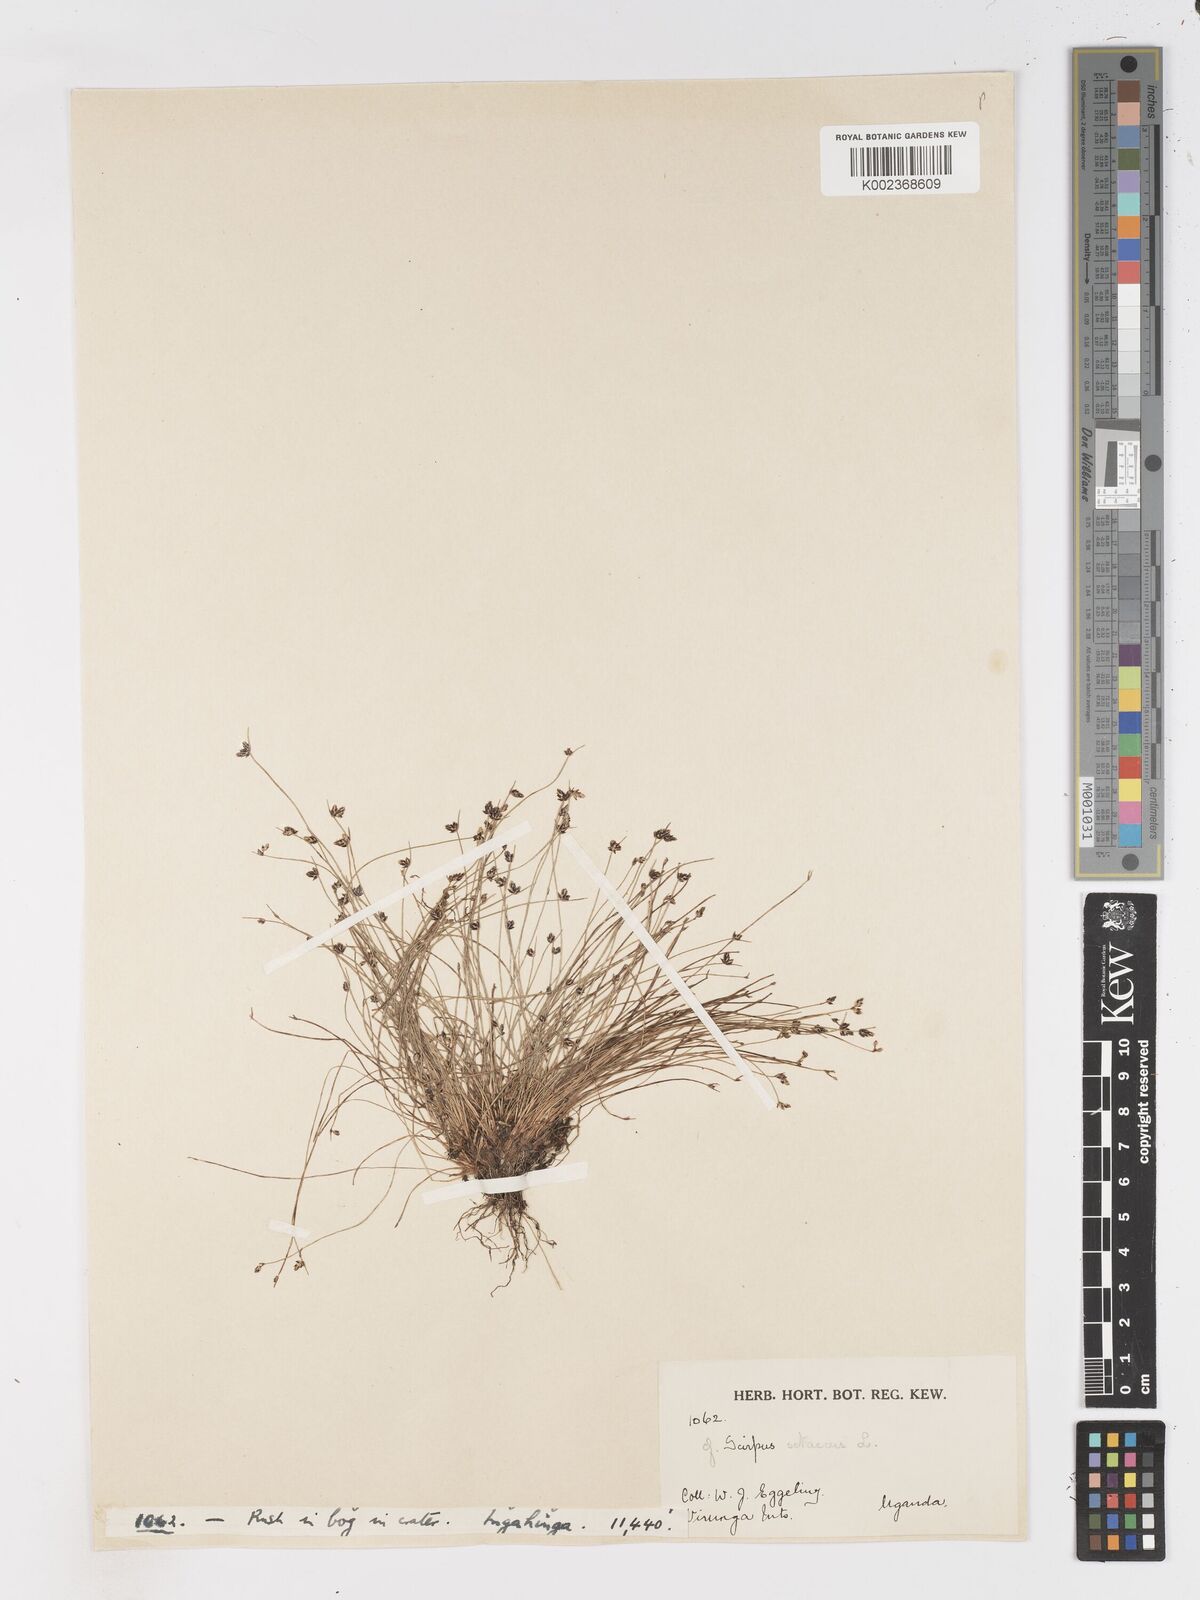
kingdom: Plantae
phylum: Tracheophyta
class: Liliopsida
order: Poales
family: Cyperaceae
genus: Isolepis
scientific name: Isolepis setacea
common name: Bristle club-rush
